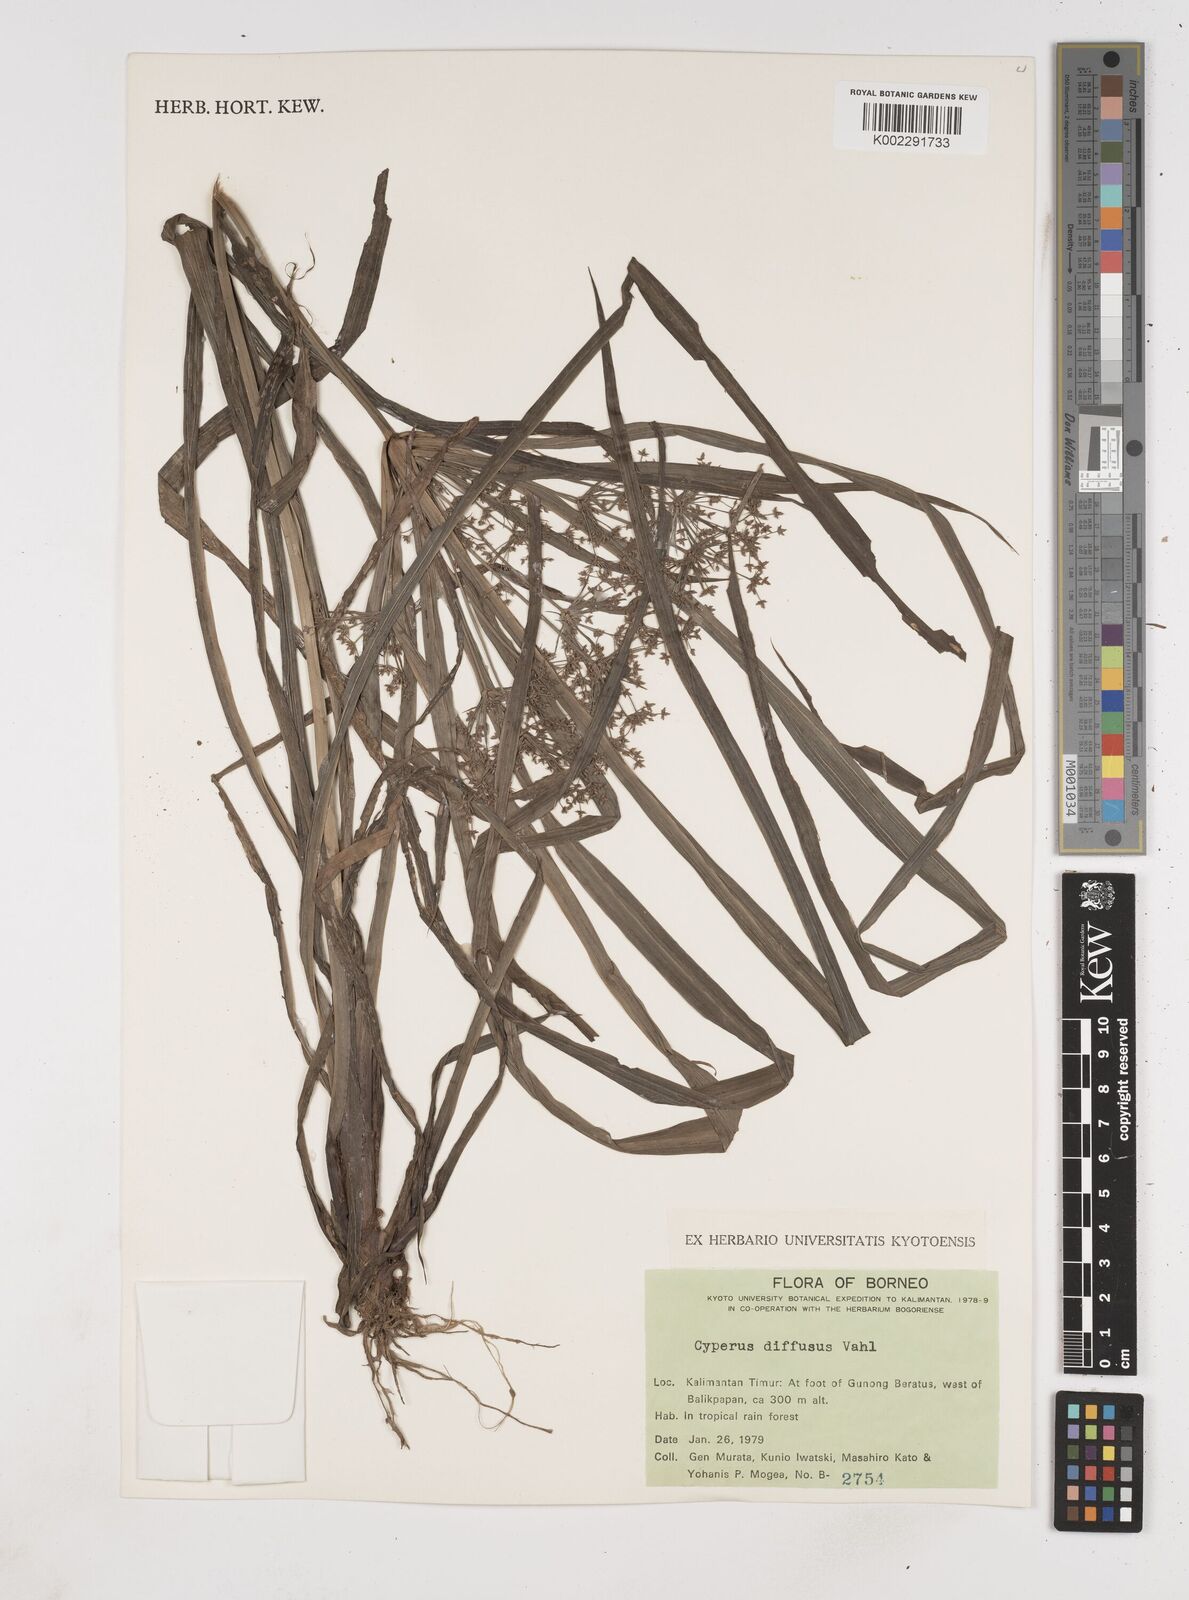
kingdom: Plantae
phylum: Tracheophyta
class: Liliopsida
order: Poales
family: Cyperaceae
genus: Cyperus
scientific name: Cyperus diffusus
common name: Dwarf umbrella grass
